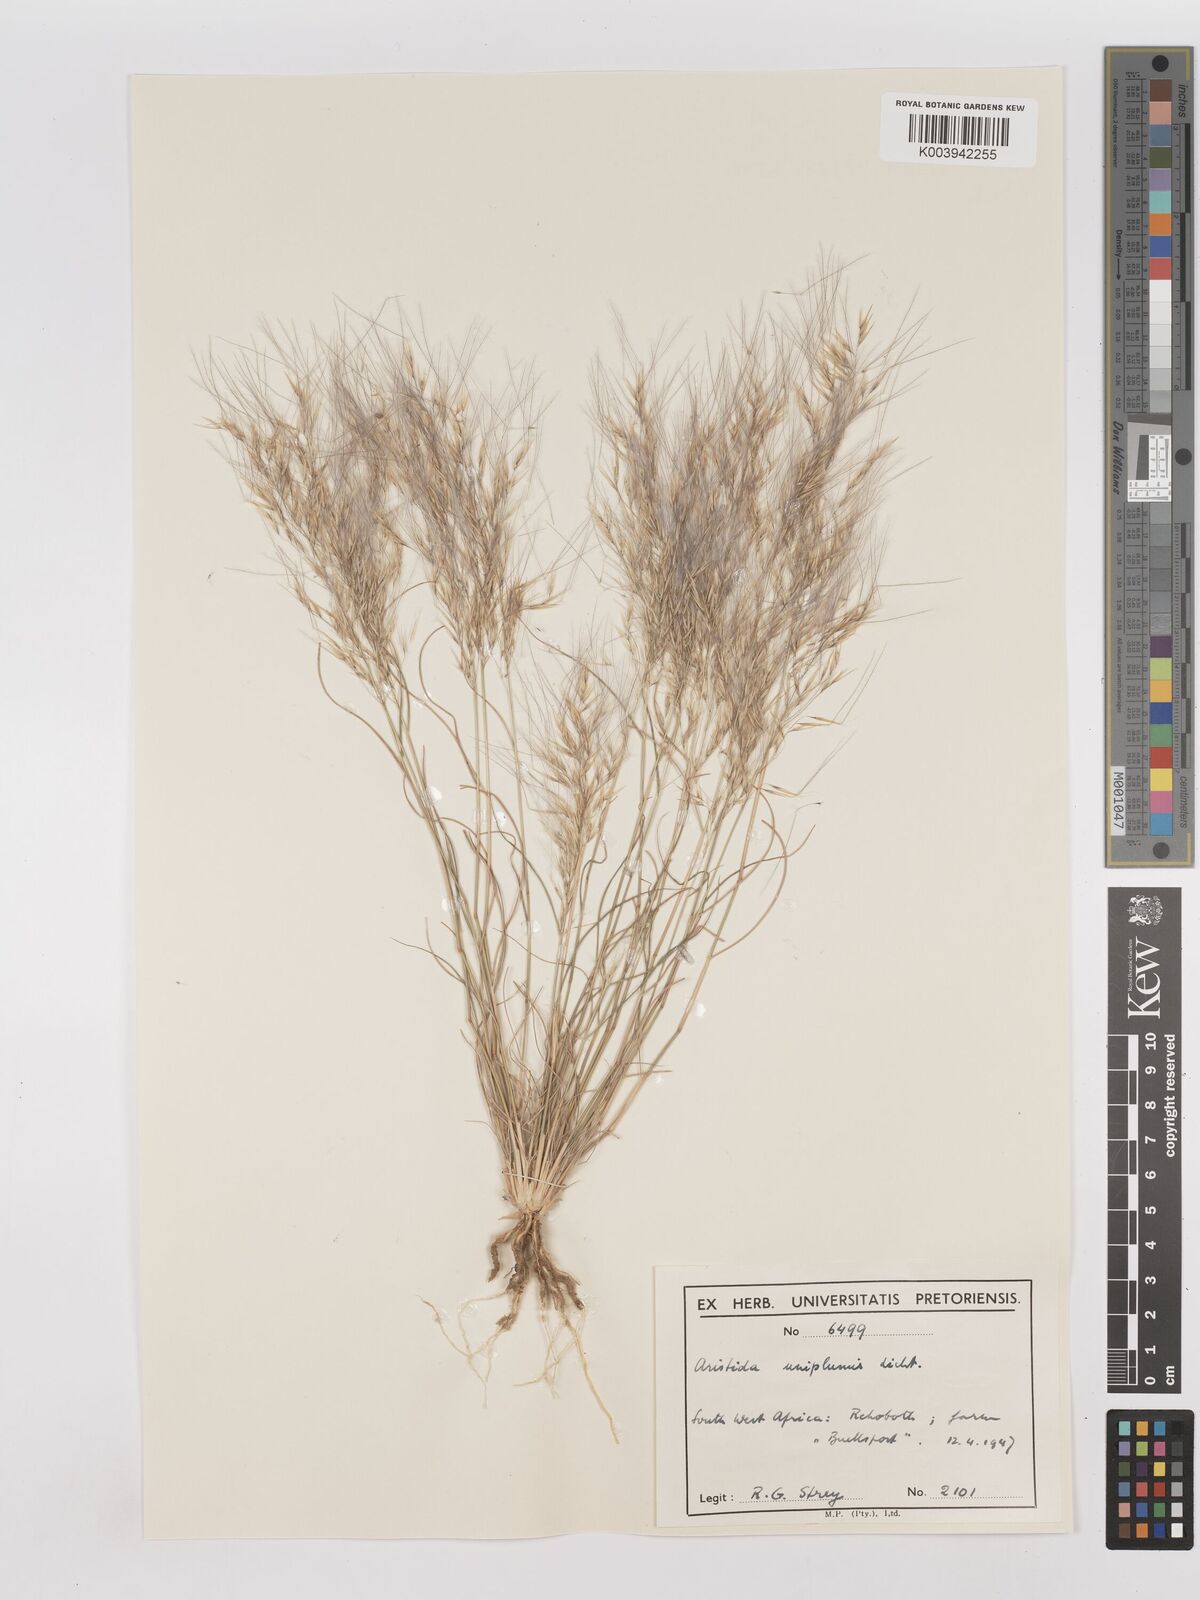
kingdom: Plantae
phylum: Tracheophyta
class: Liliopsida
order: Poales
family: Poaceae
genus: Stipagrostis
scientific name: Stipagrostis uniplumis
